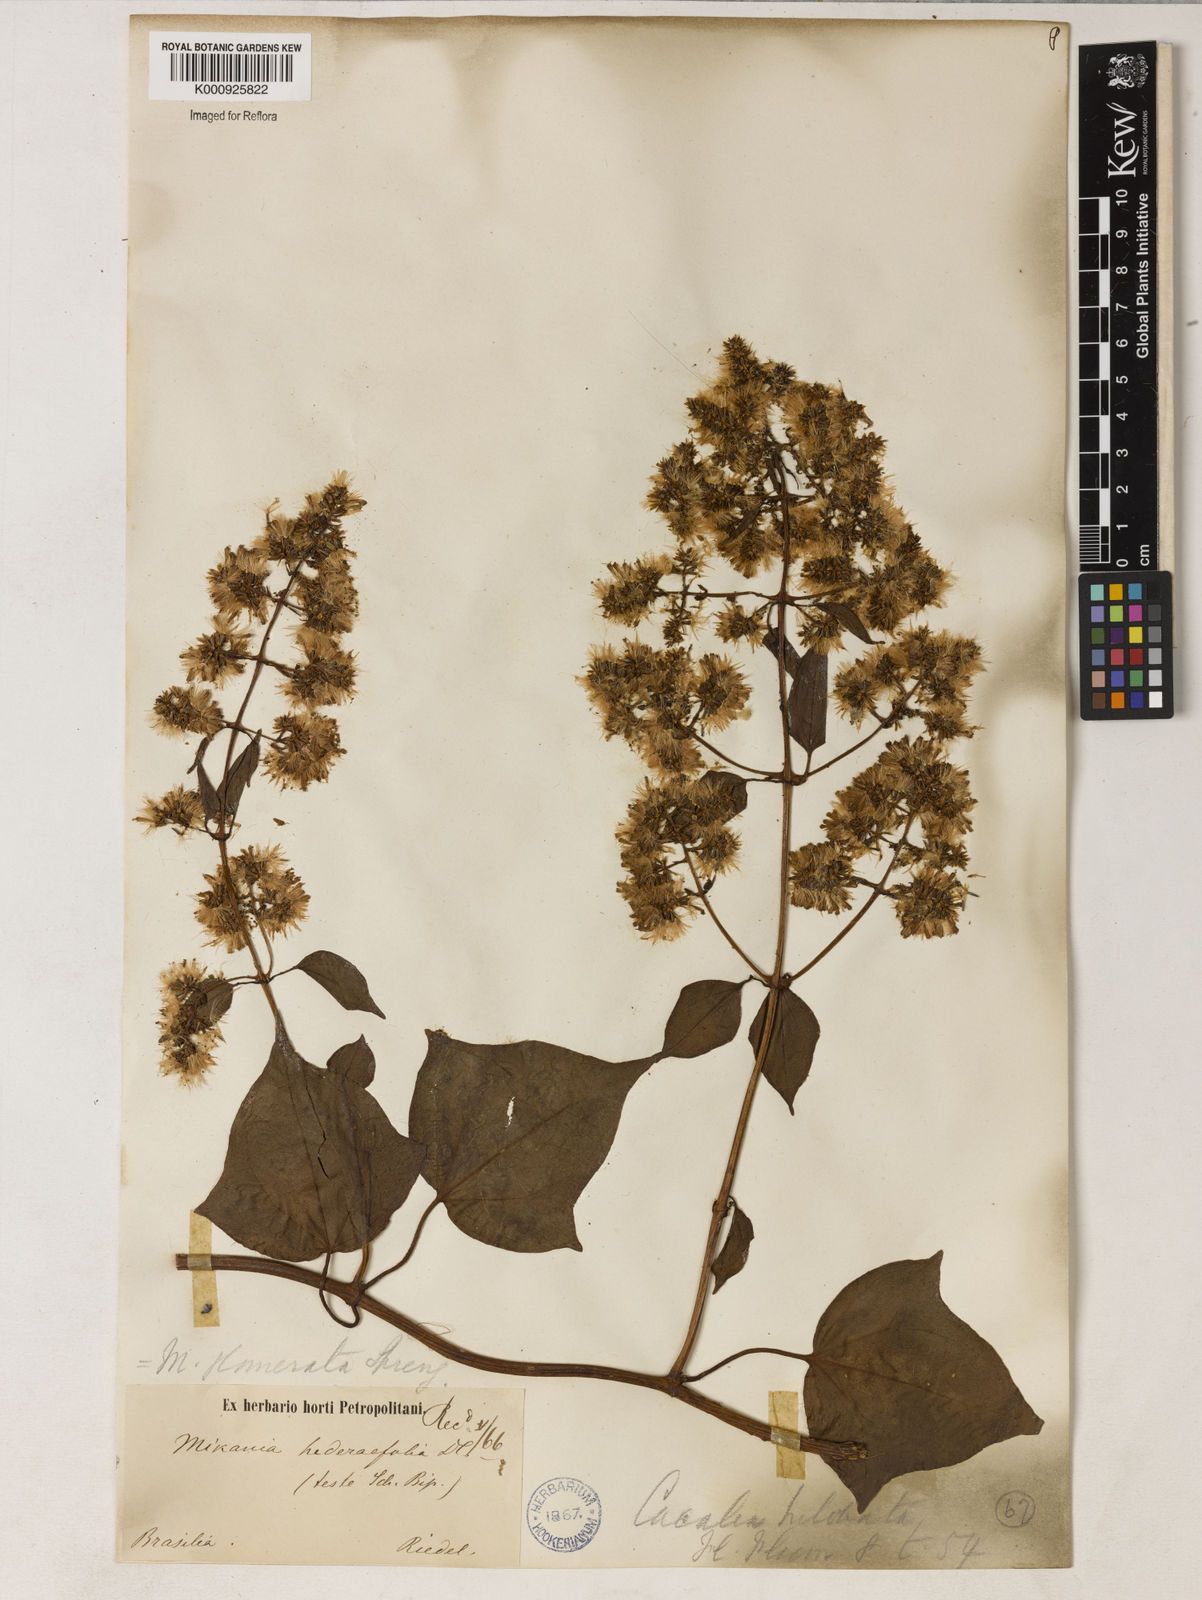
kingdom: Plantae
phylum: Tracheophyta
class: Magnoliopsida
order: Asterales
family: Asteraceae
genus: Mikania
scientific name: Mikania glomerata
